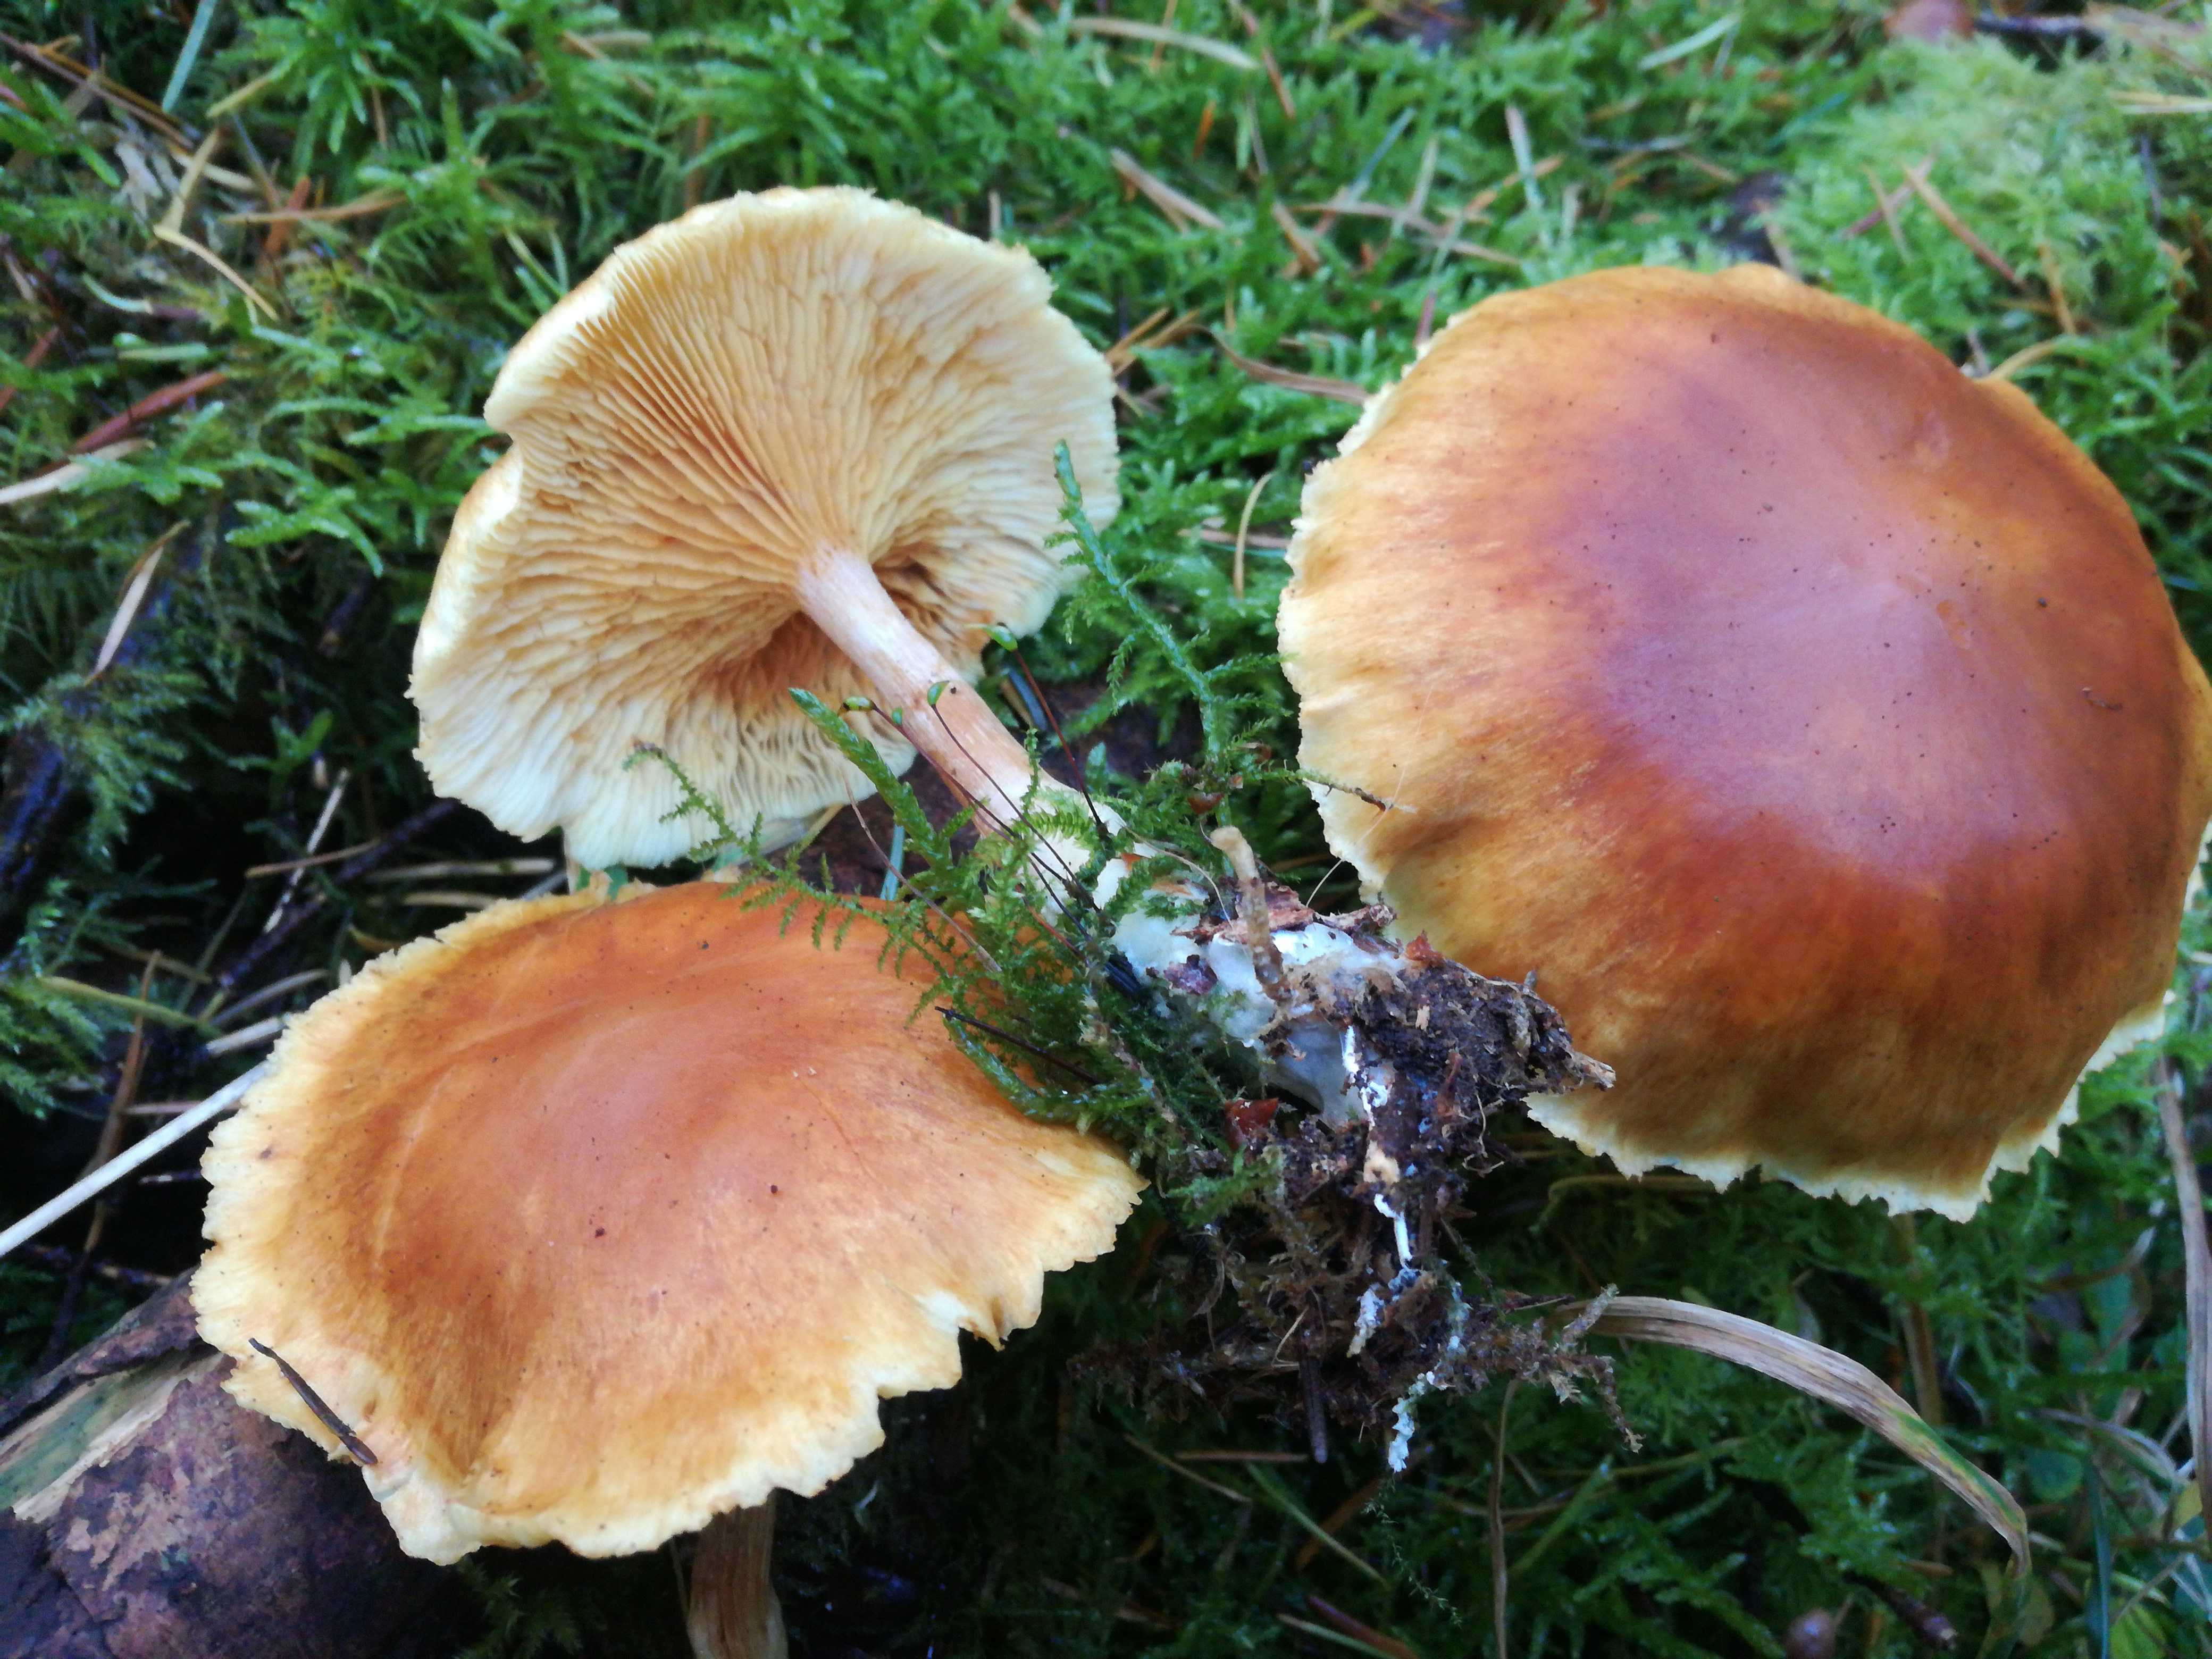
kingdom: Fungi
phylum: Basidiomycota
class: Agaricomycetes
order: Agaricales
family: Hymenogastraceae
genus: Gymnopilus
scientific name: Gymnopilus penetrans
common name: plettet flammehat
